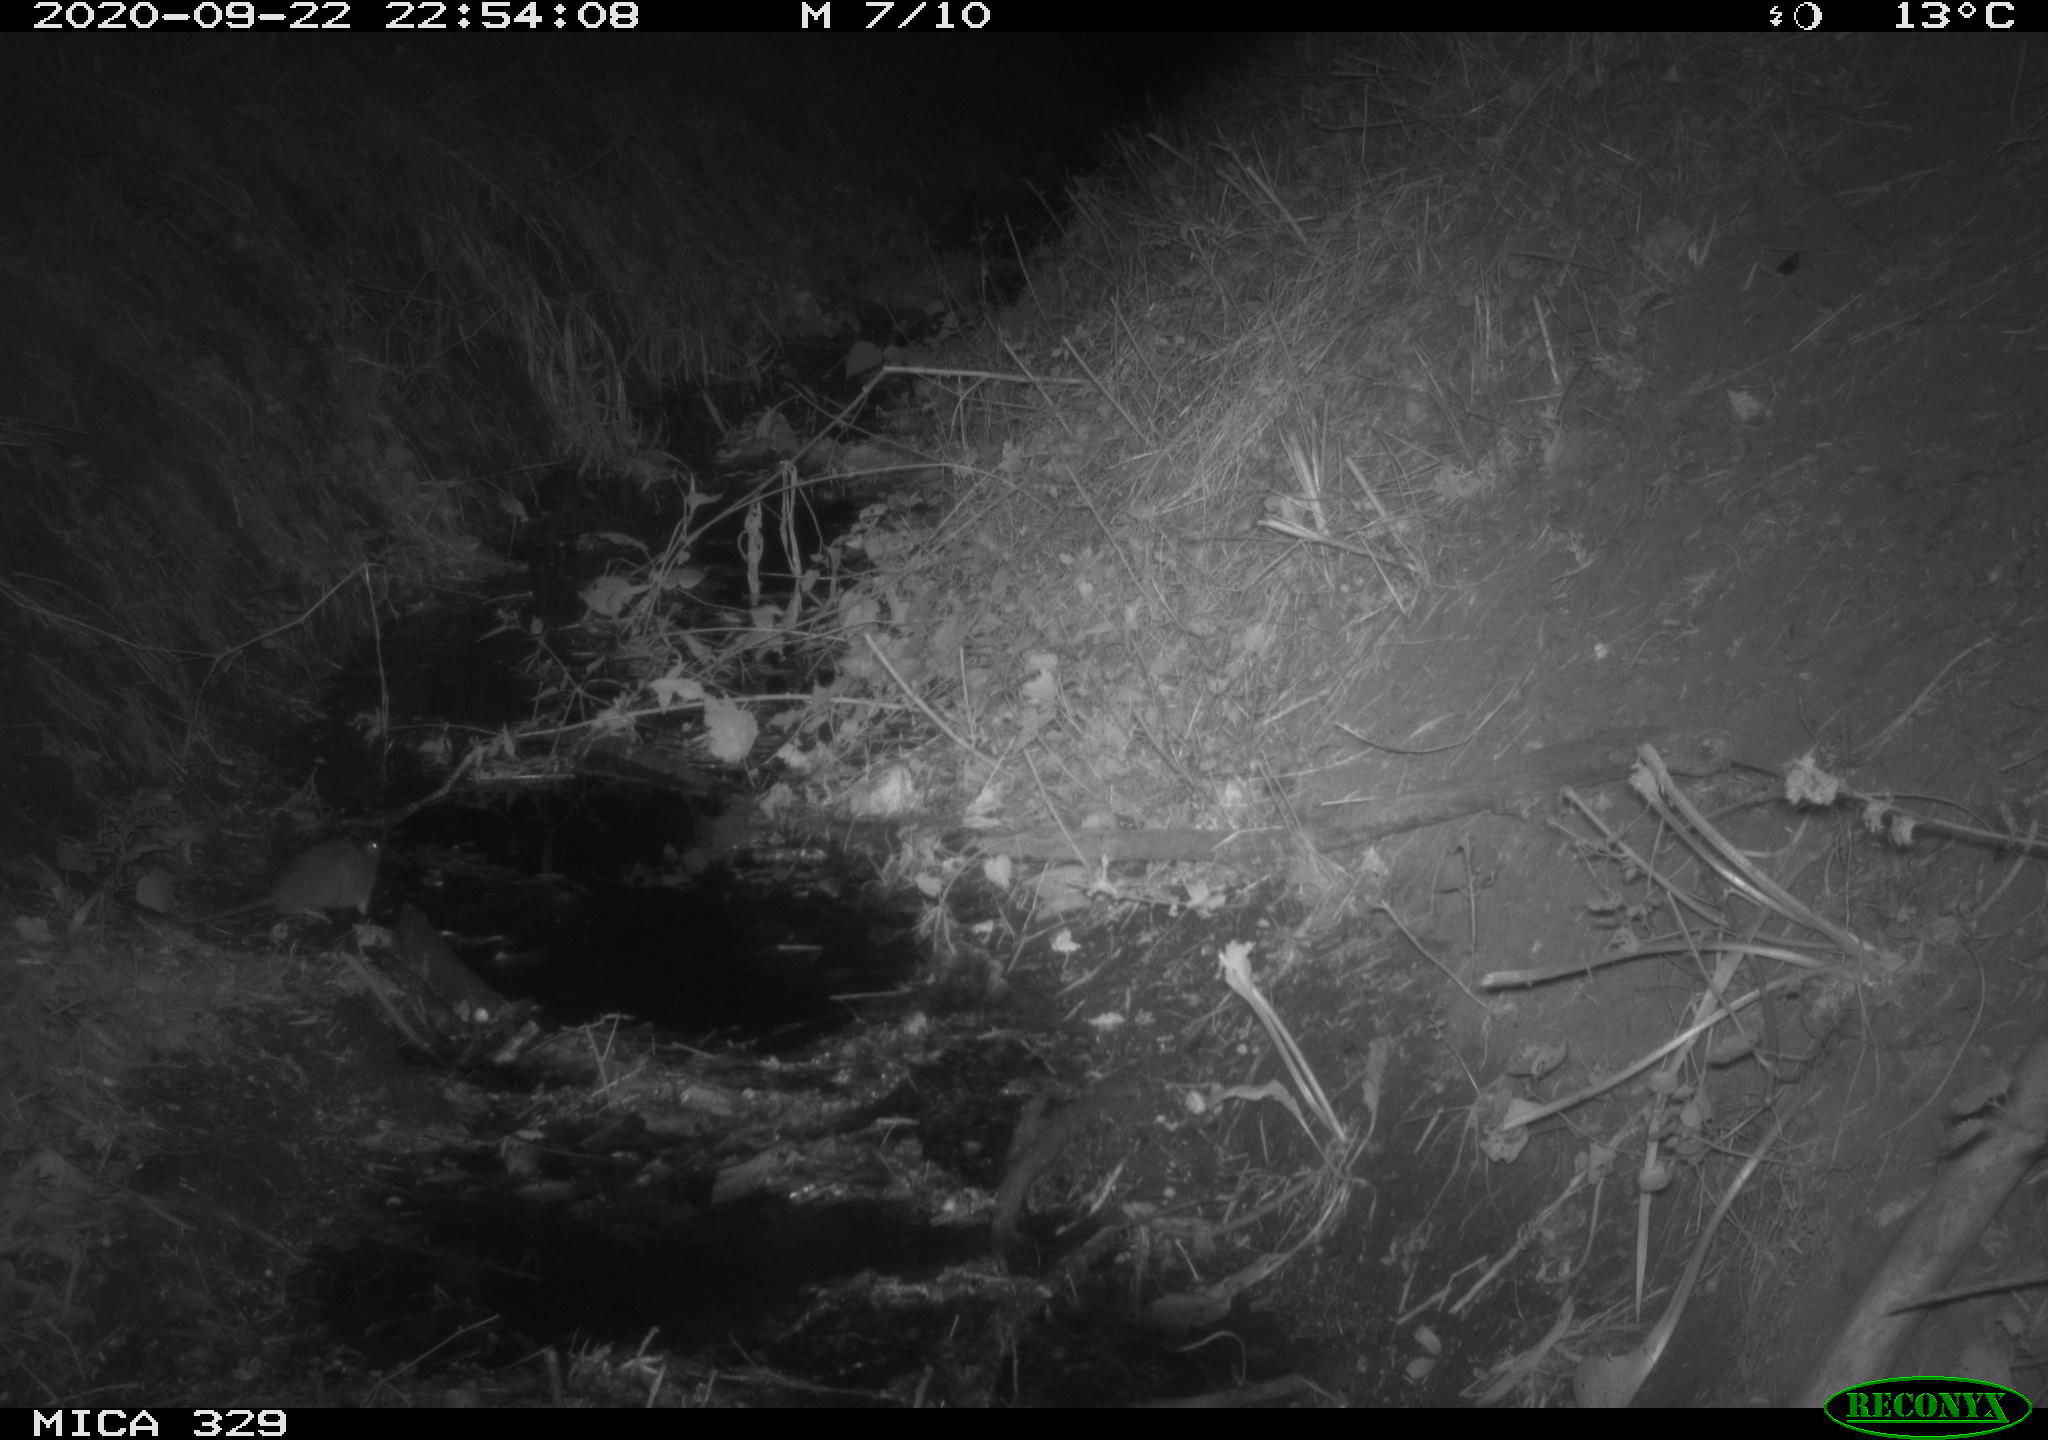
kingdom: Animalia
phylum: Chordata
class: Mammalia
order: Rodentia
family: Muridae
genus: Rattus
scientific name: Rattus norvegicus
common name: Brown rat
